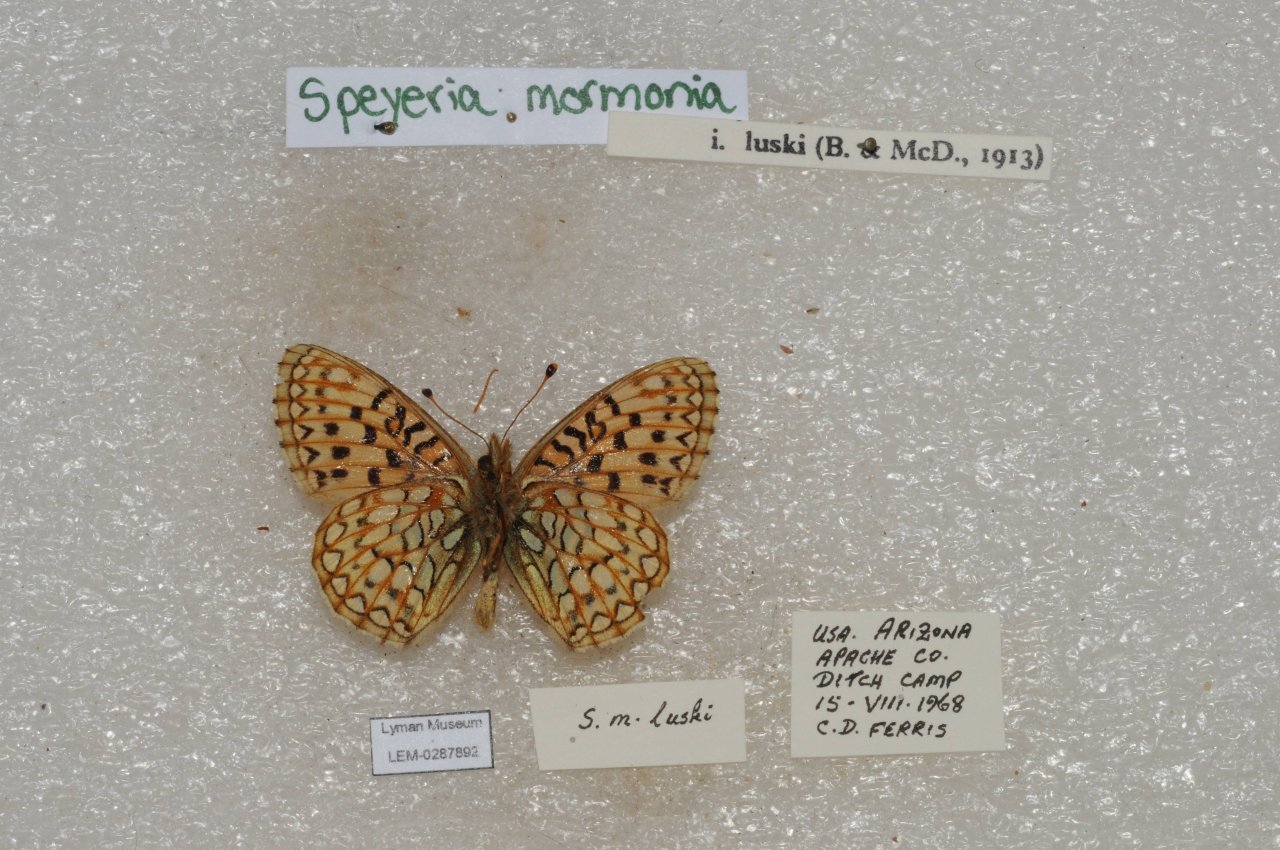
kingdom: Animalia
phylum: Arthropoda
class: Insecta
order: Lepidoptera
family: Nymphalidae
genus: Speyeria
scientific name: Speyeria mormonia
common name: Mormon Fritillary
